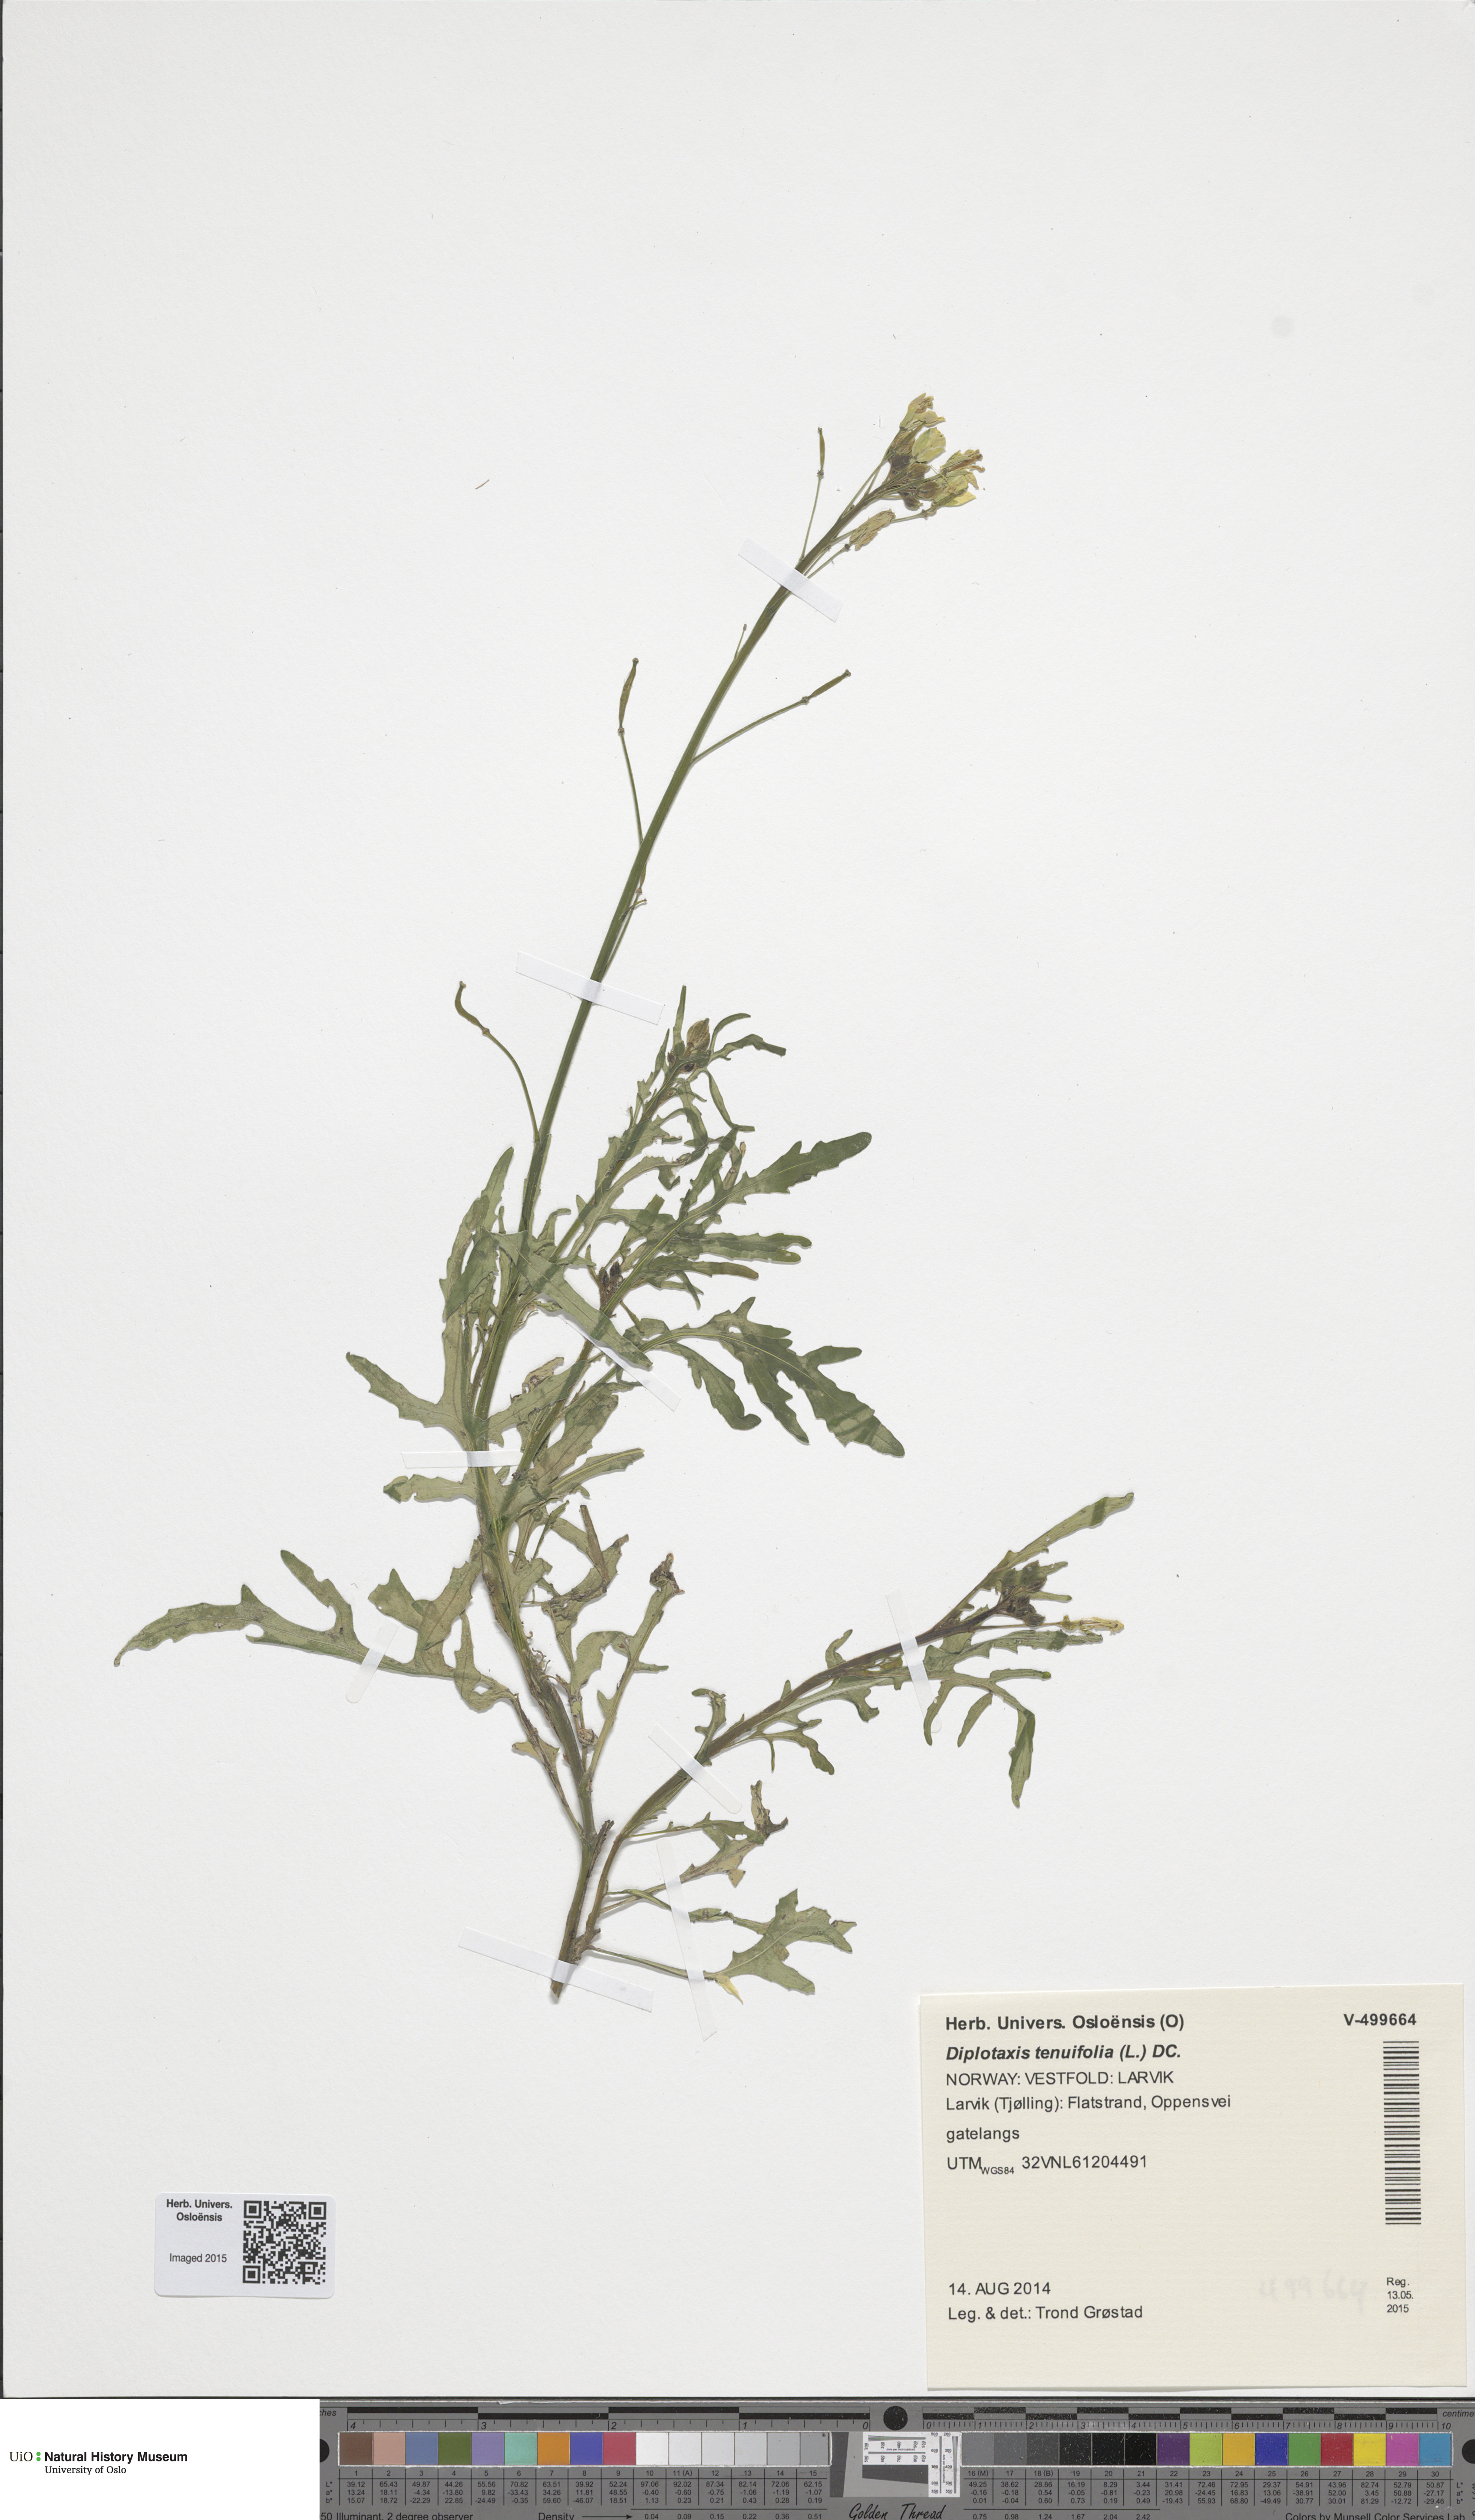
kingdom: Plantae
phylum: Tracheophyta
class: Magnoliopsida
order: Brassicales
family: Brassicaceae
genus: Diplotaxis
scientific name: Diplotaxis tenuifolia
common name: Perennial wall-rocket
